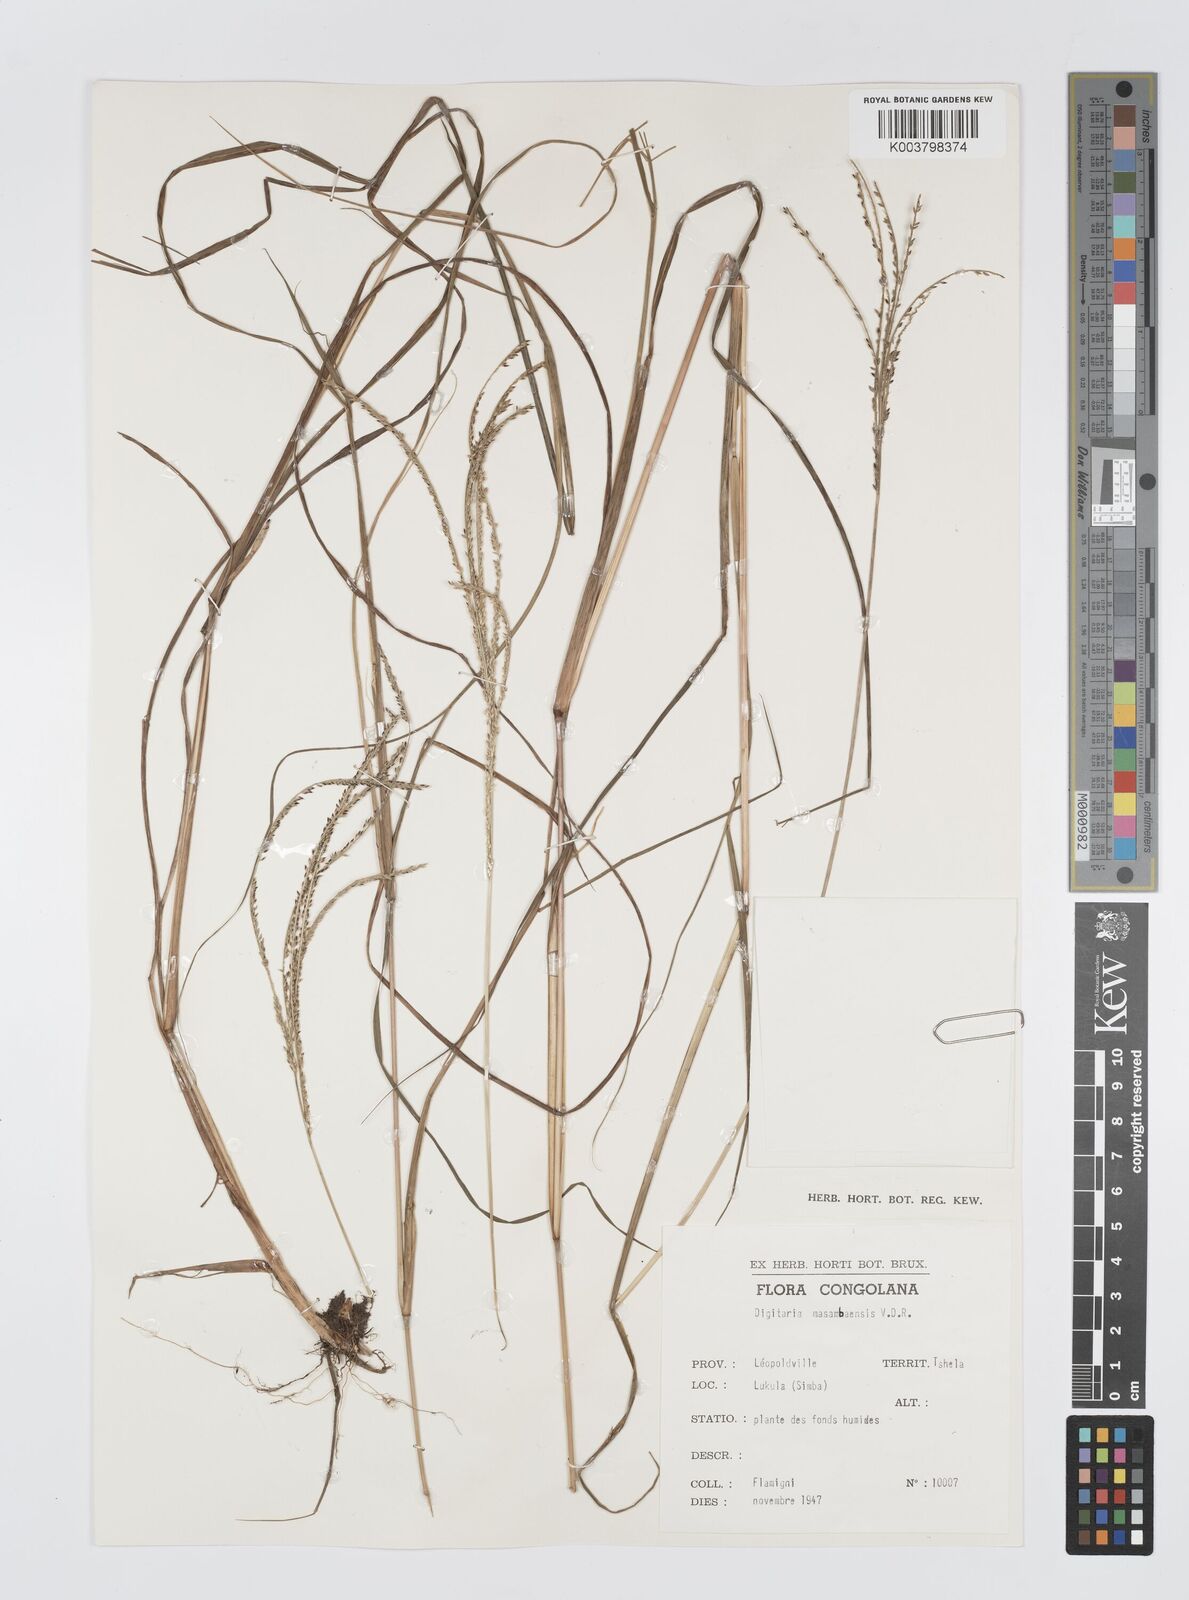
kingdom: Plantae
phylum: Tracheophyta
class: Liliopsida
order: Poales
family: Poaceae
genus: Digitaria
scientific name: Digitaria atrofusca
